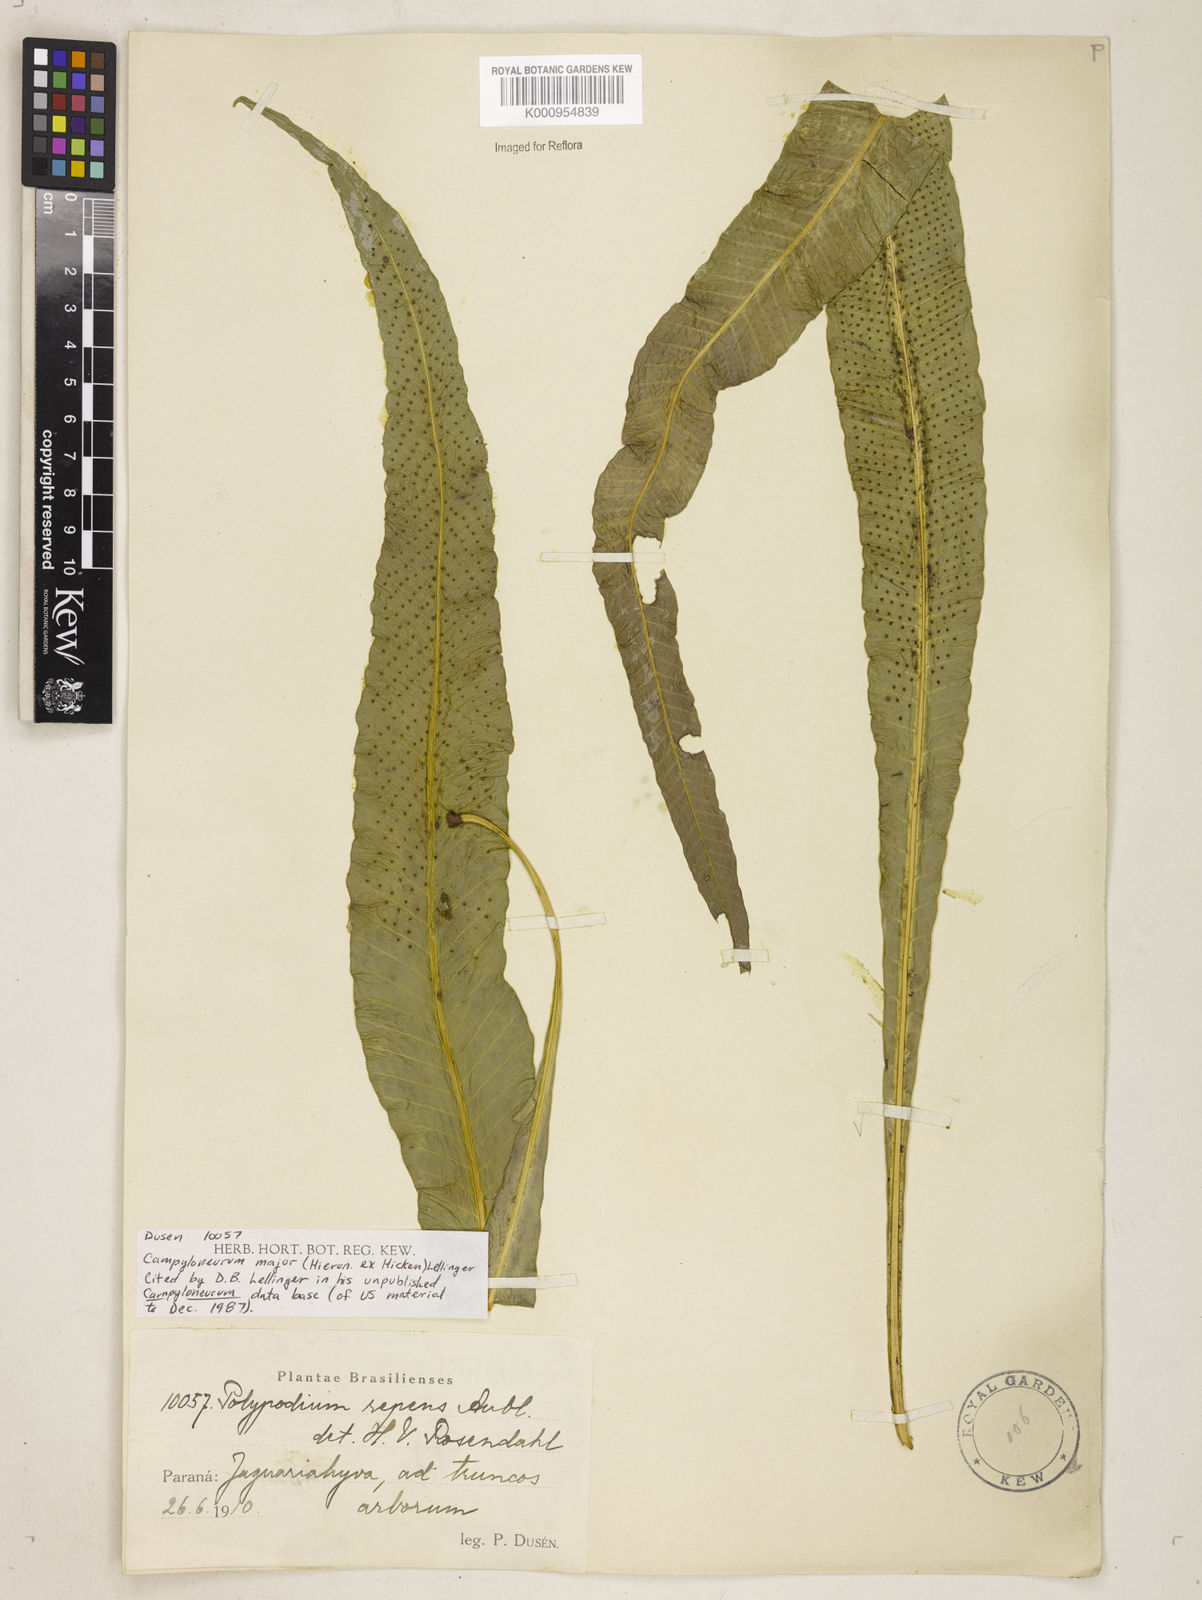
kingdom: Plantae
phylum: Tracheophyta
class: Polypodiopsida
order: Polypodiales
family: Polypodiaceae
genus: Campyloneurum
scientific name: Campyloneurum majus
